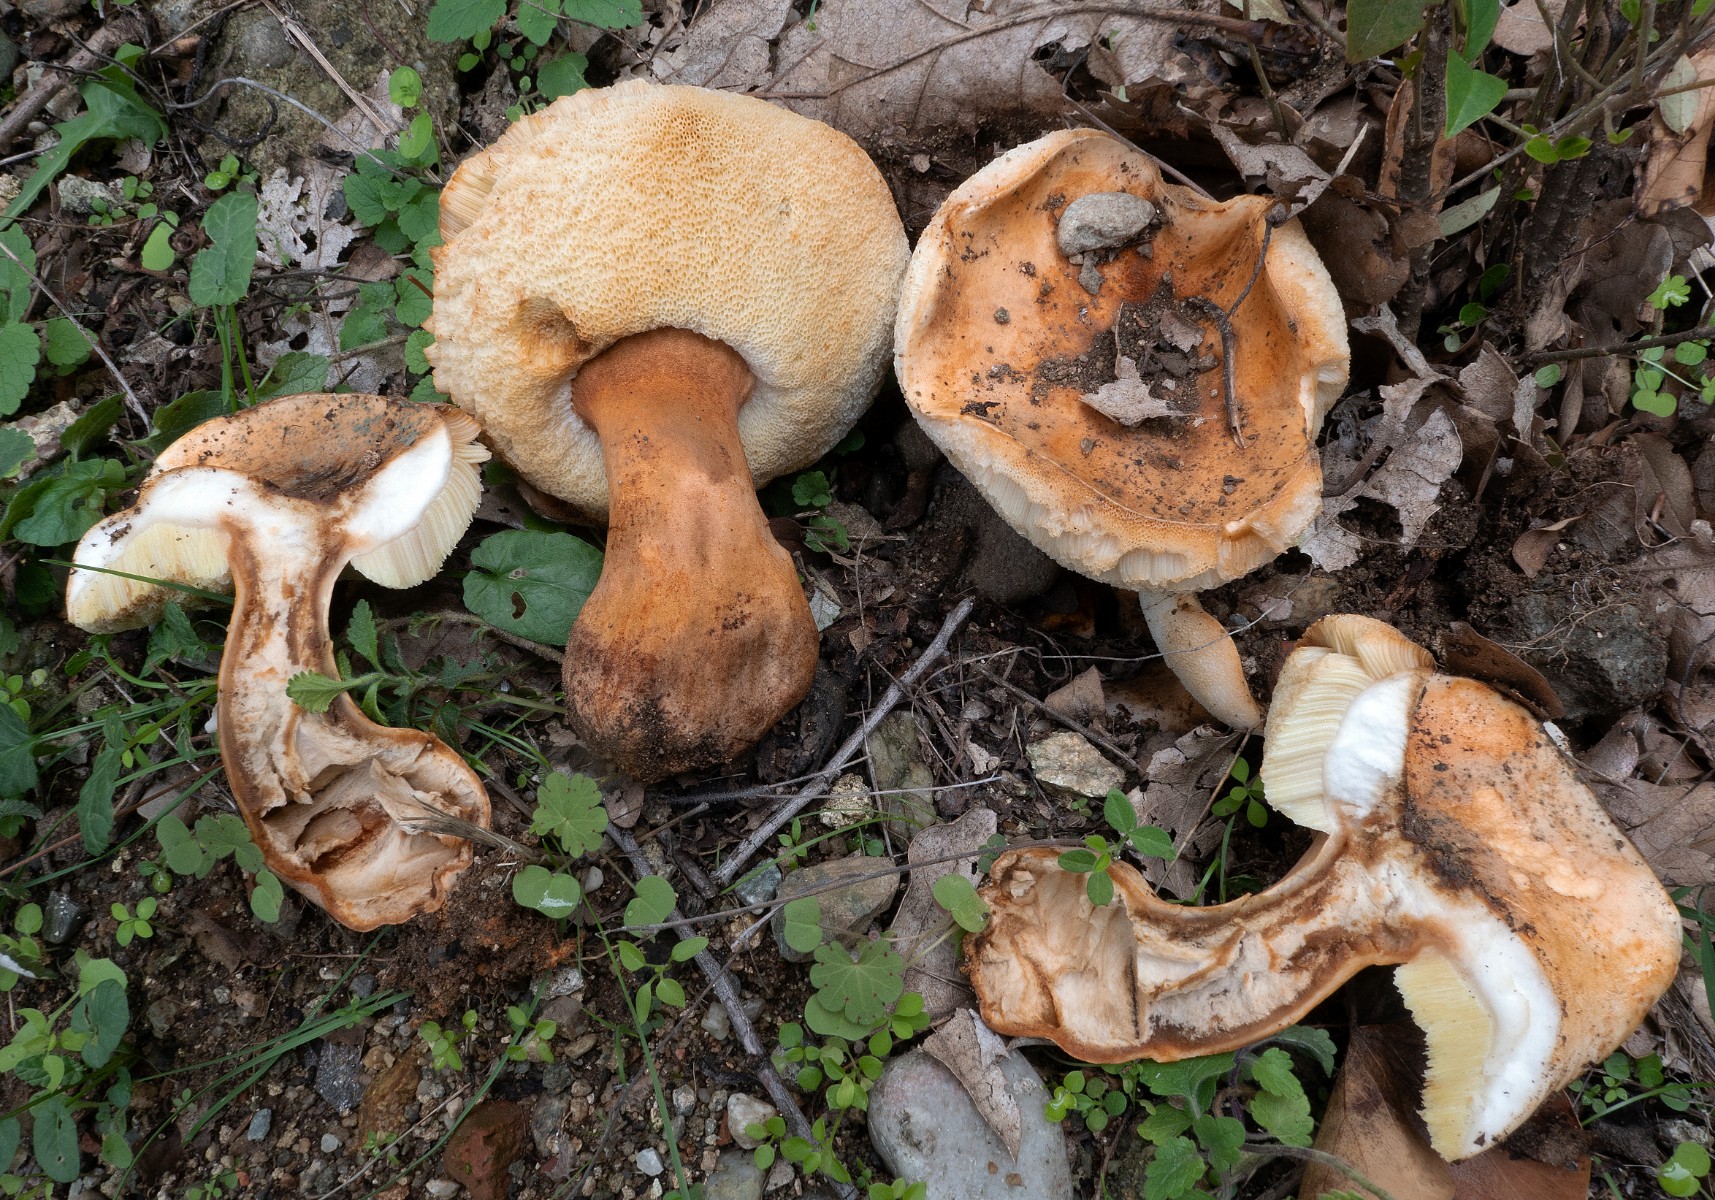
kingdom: Fungi
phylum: Basidiomycota
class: Agaricomycetes
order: Boletales
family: Gyroporaceae
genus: Gyroporus
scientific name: Gyroporus castaneus
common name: kastanie-kammerrørhat
